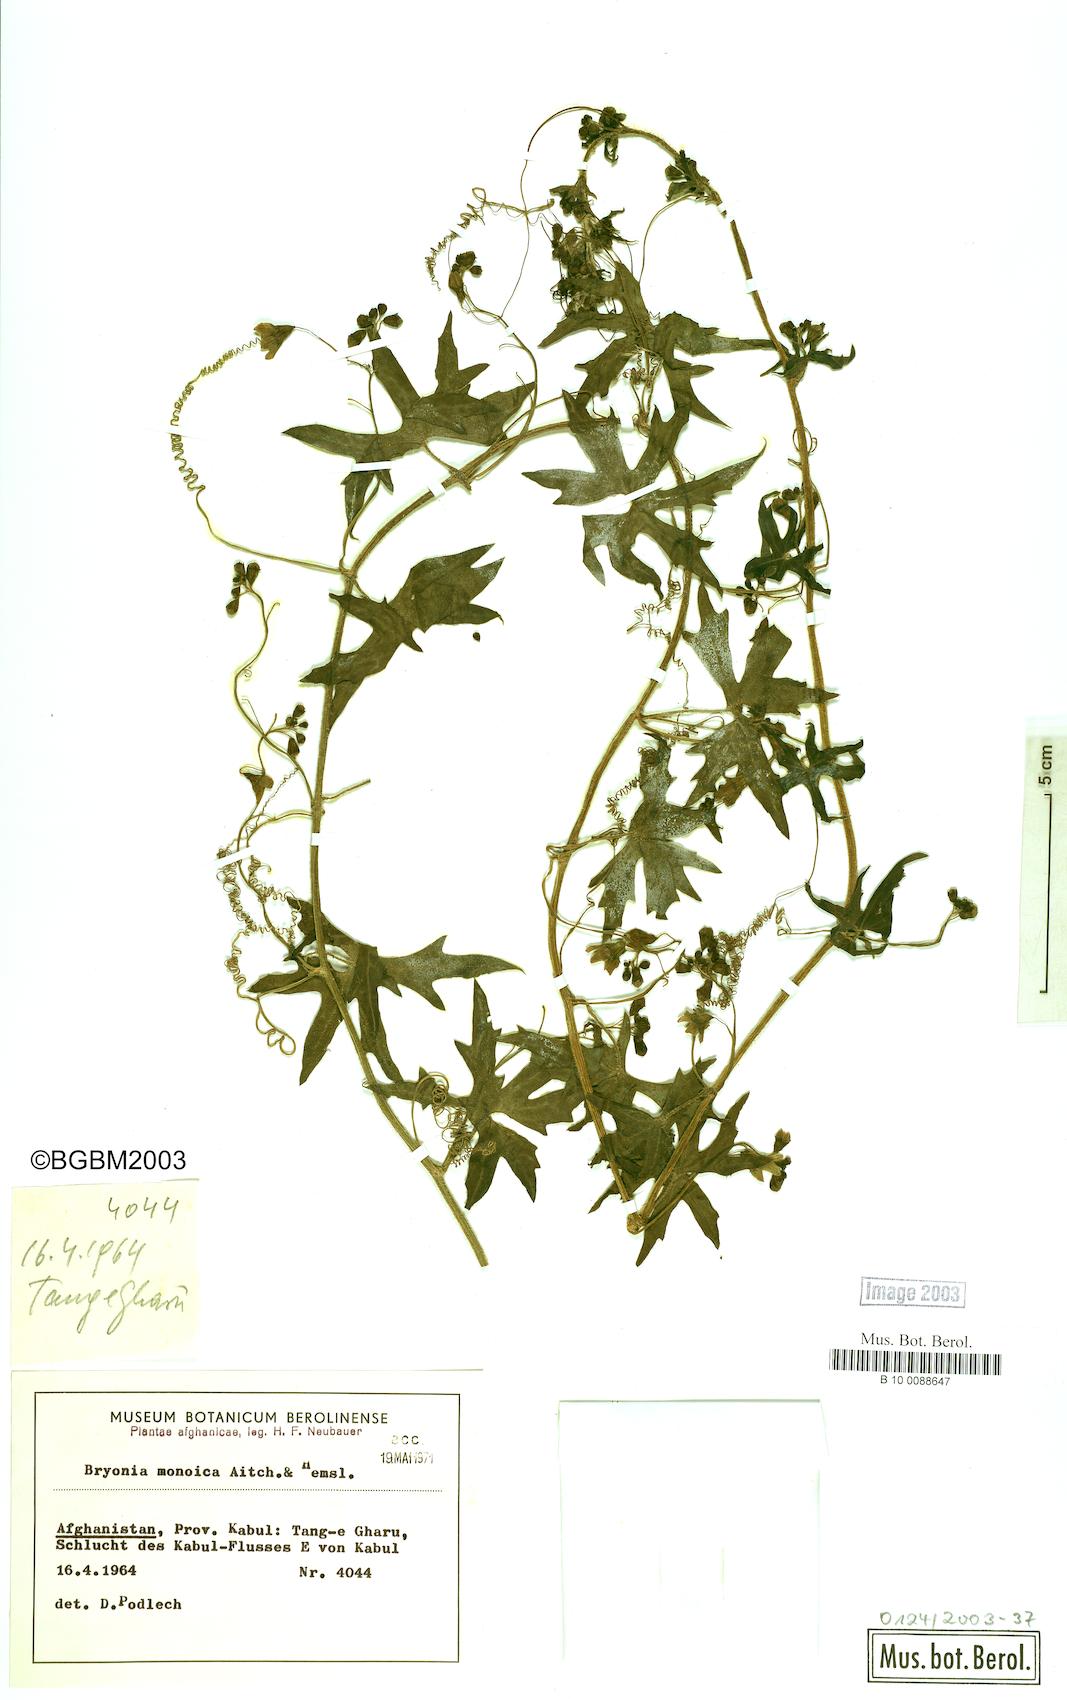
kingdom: Plantae
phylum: Tracheophyta
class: Magnoliopsida
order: Cucurbitales
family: Cucurbitaceae
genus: Bryonia
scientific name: Bryonia monoica
